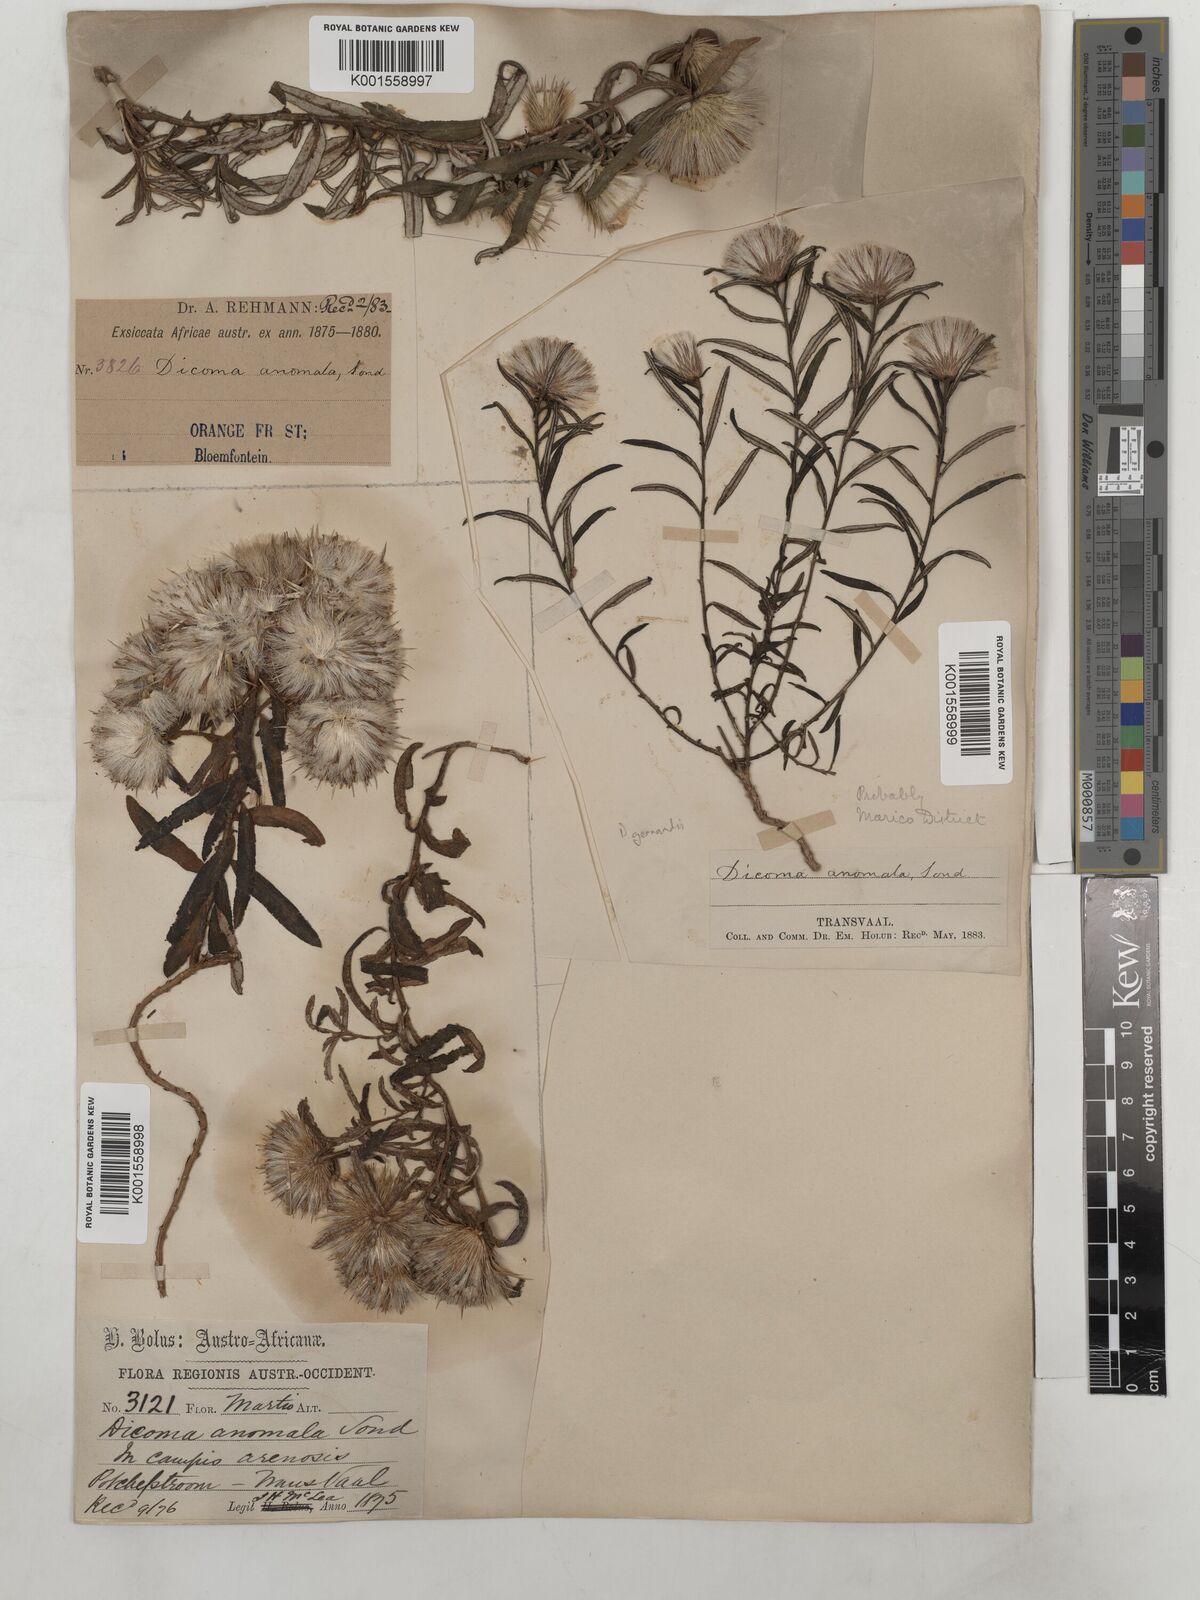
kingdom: Plantae
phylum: Tracheophyta
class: Magnoliopsida
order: Asterales
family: Asteraceae
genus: Dicoma
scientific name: Dicoma anomala
